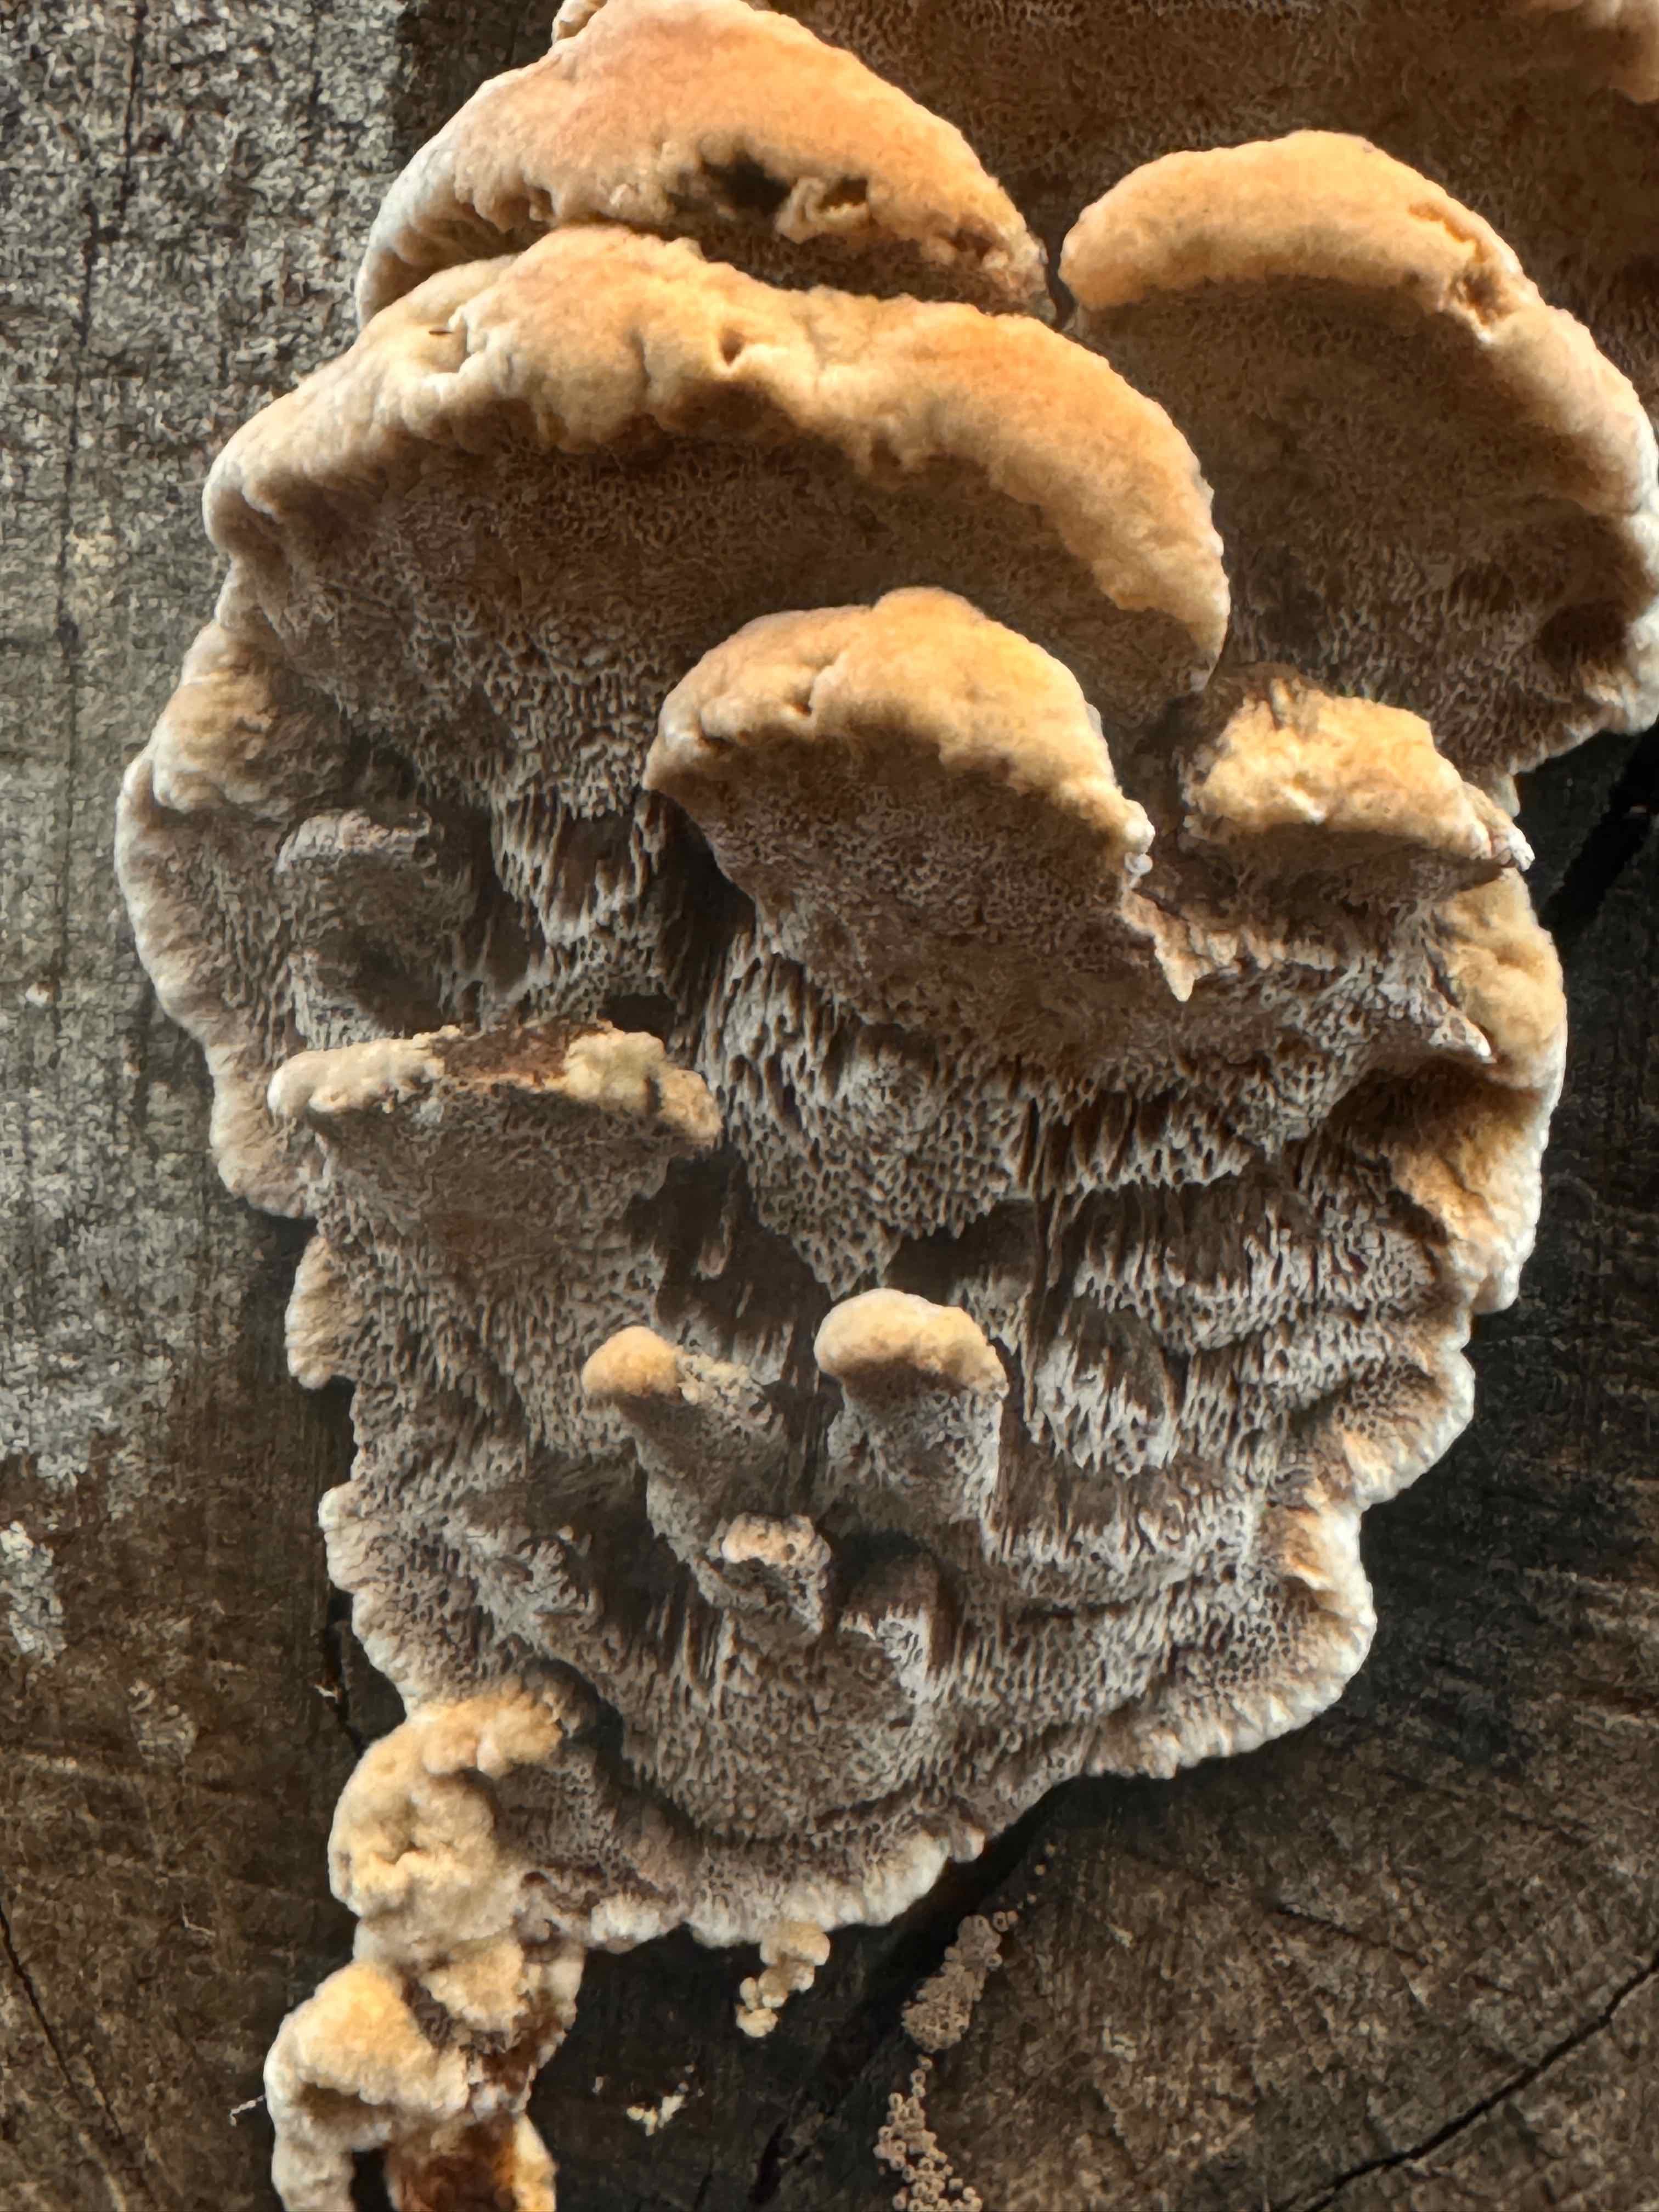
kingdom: Fungi
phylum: Basidiomycota
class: Agaricomycetes
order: Hymenochaetales
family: Hymenochaetaceae
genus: Mensularia
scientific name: Mensularia nodulosa
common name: bøge-spejlporesvamp
